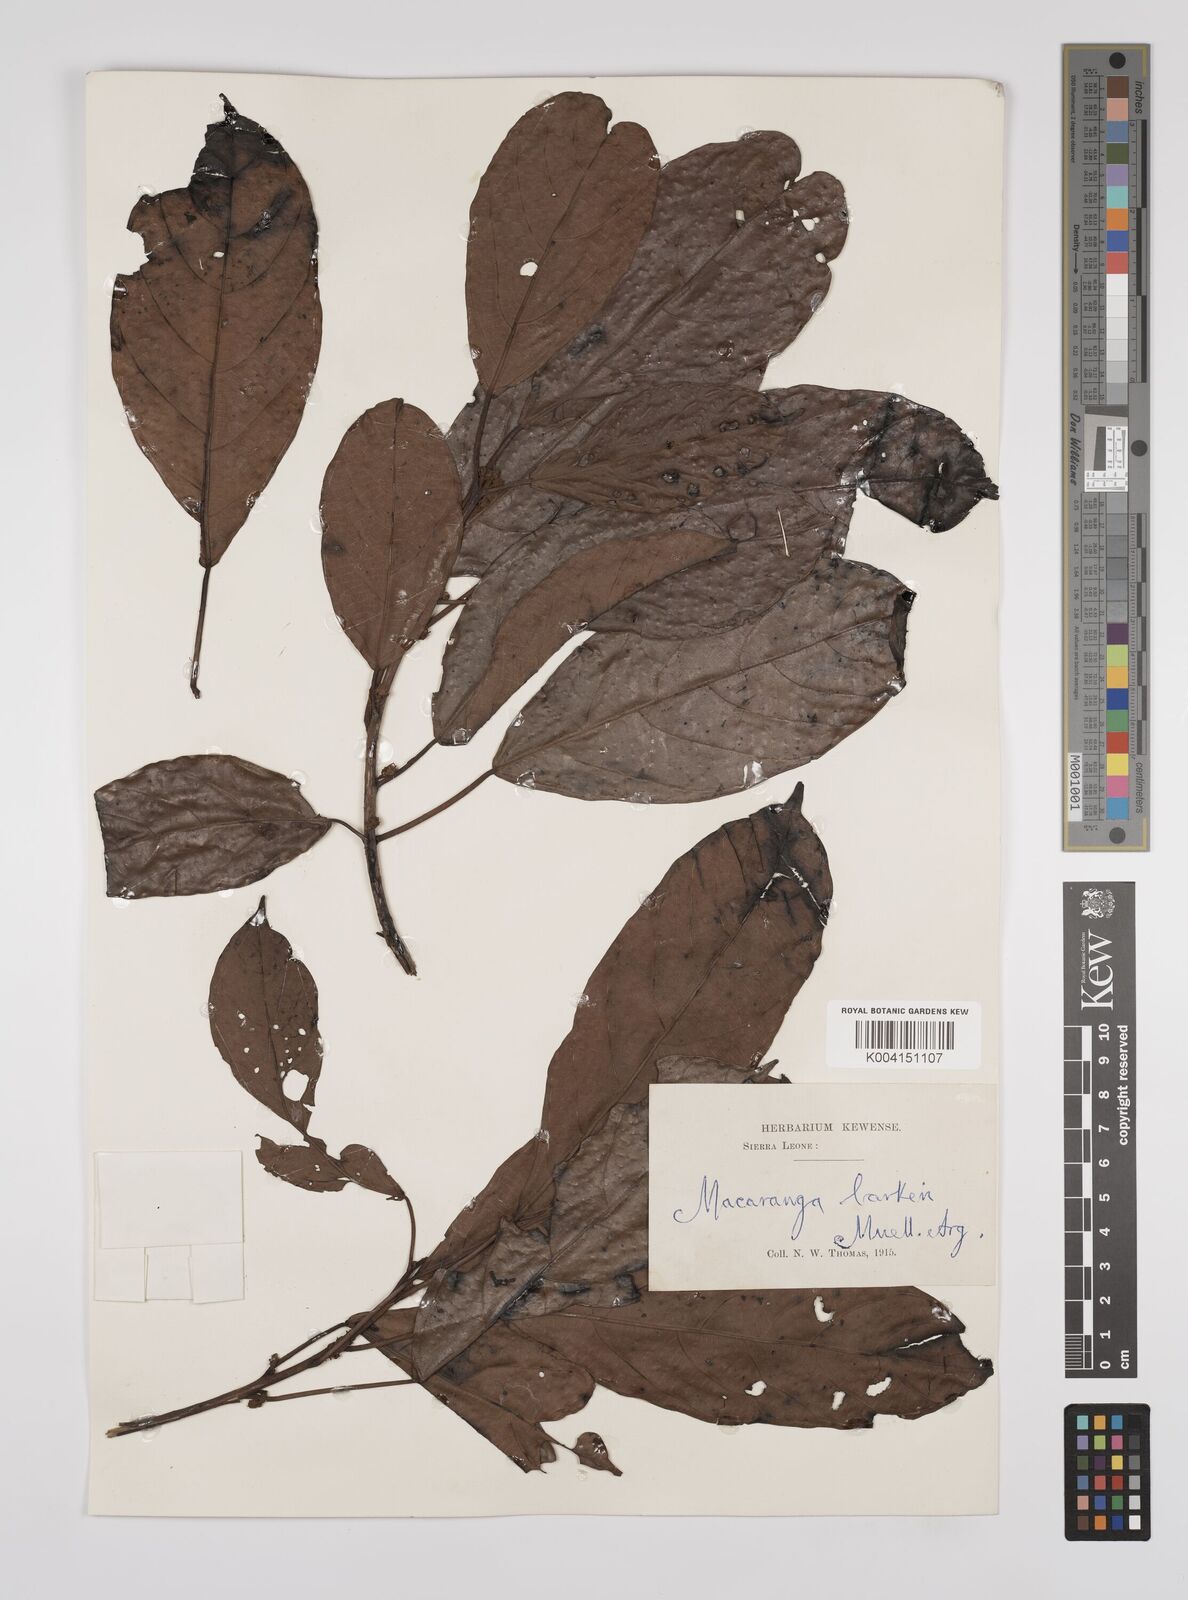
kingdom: Plantae
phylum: Tracheophyta
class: Magnoliopsida
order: Malpighiales
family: Euphorbiaceae
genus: Macaranga
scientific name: Macaranga barteri
